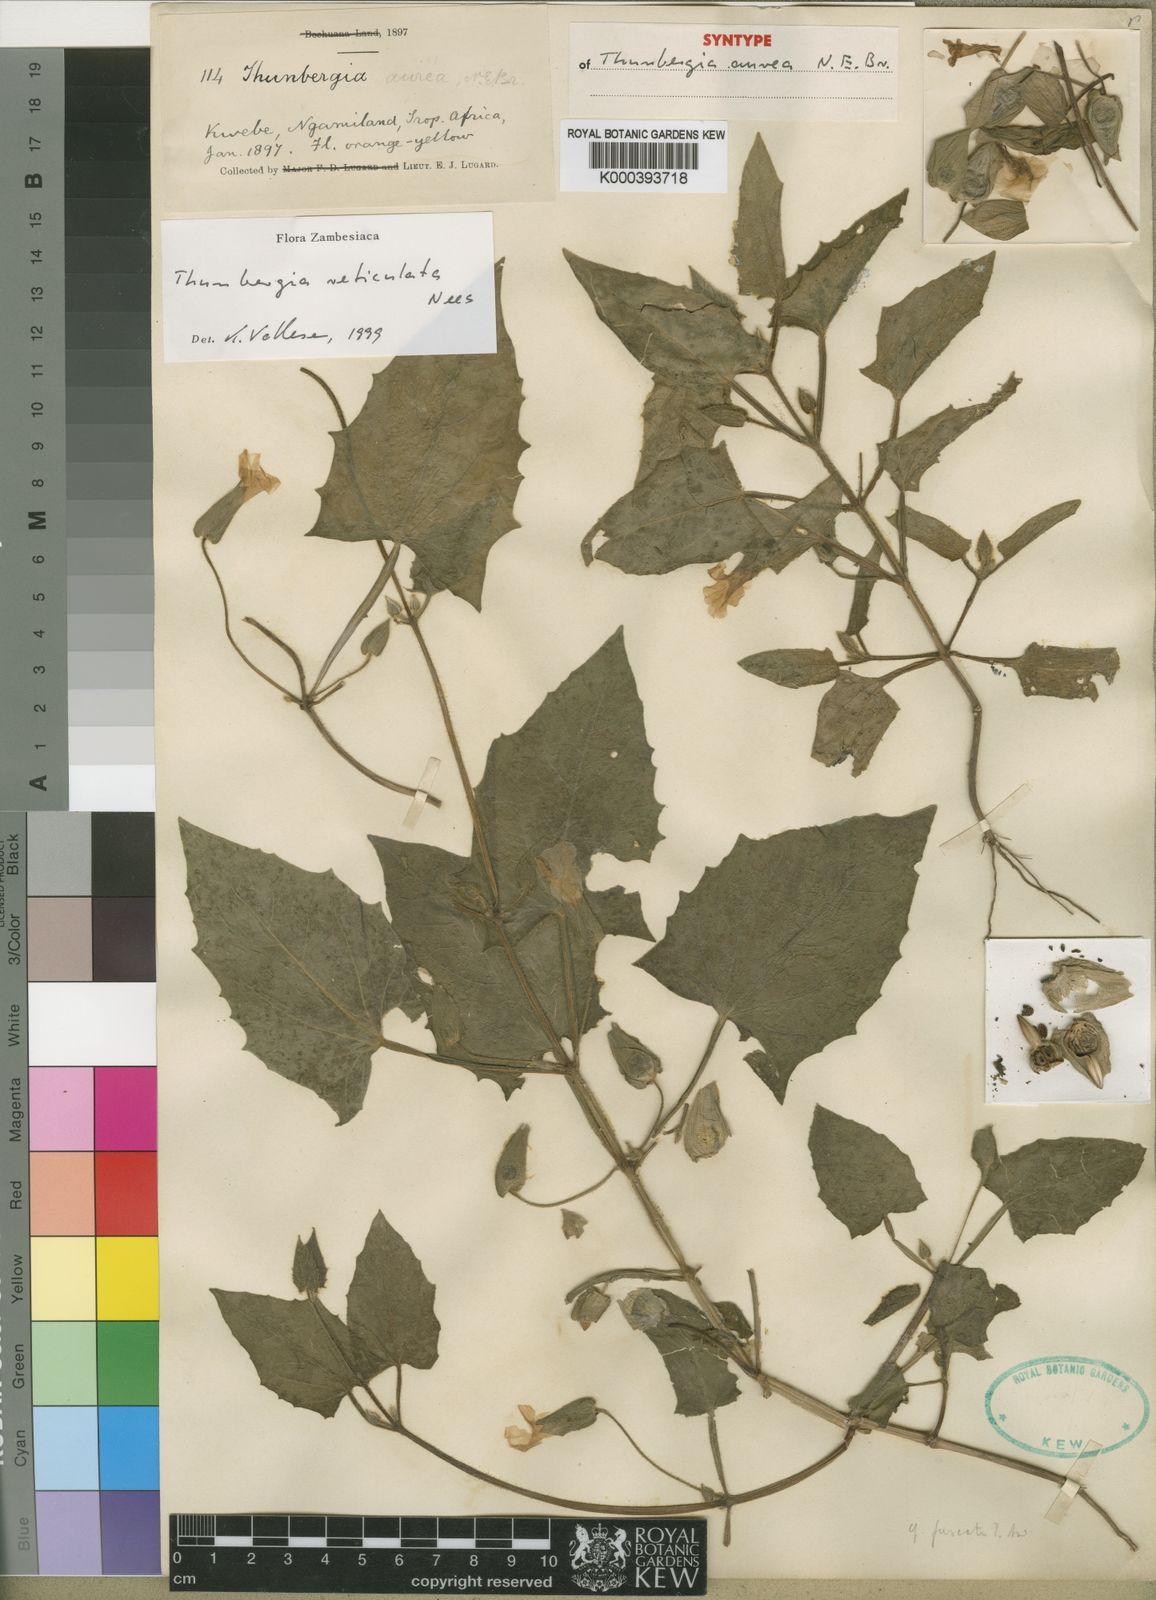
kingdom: Plantae
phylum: Tracheophyta
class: Magnoliopsida
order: Lamiales
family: Acanthaceae
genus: Thunbergia
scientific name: Thunbergia reticulata
